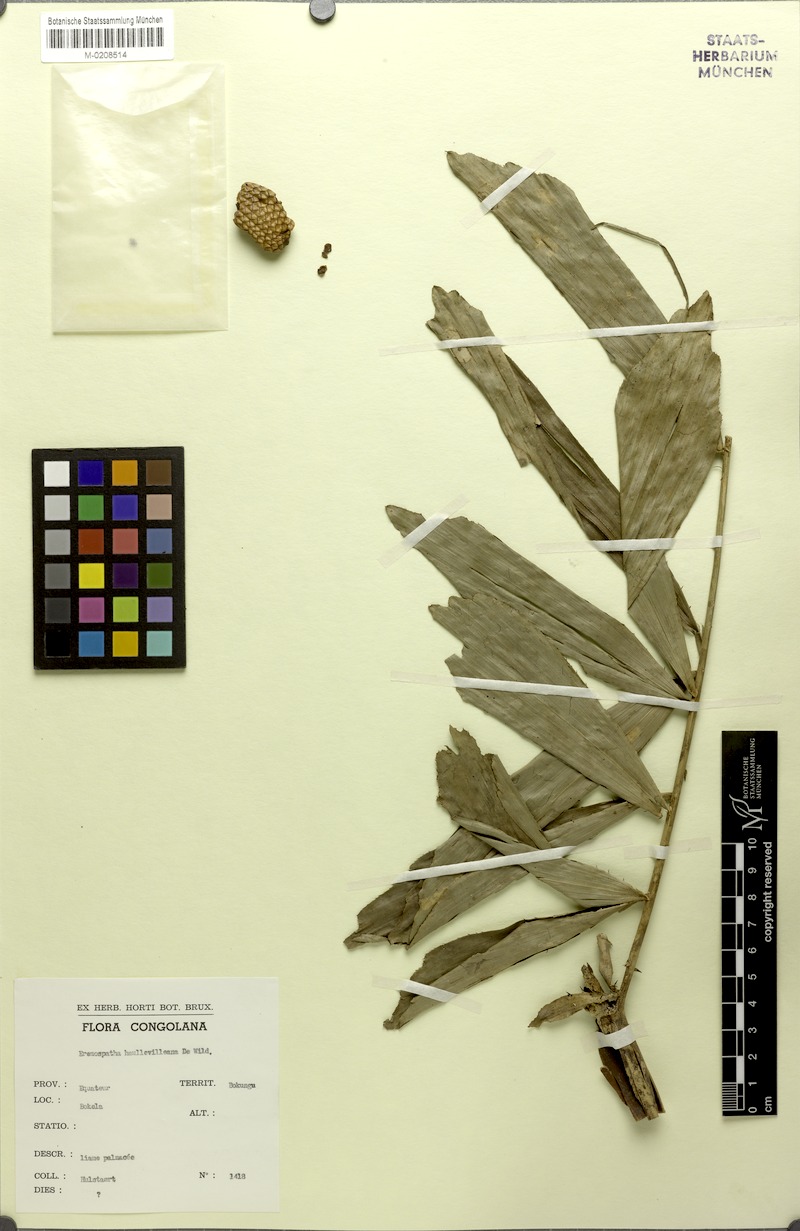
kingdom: Plantae
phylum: Tracheophyta
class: Liliopsida
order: Arecales
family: Arecaceae
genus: Eremospatha
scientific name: Eremospatha haullevilleana
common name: Rattan
